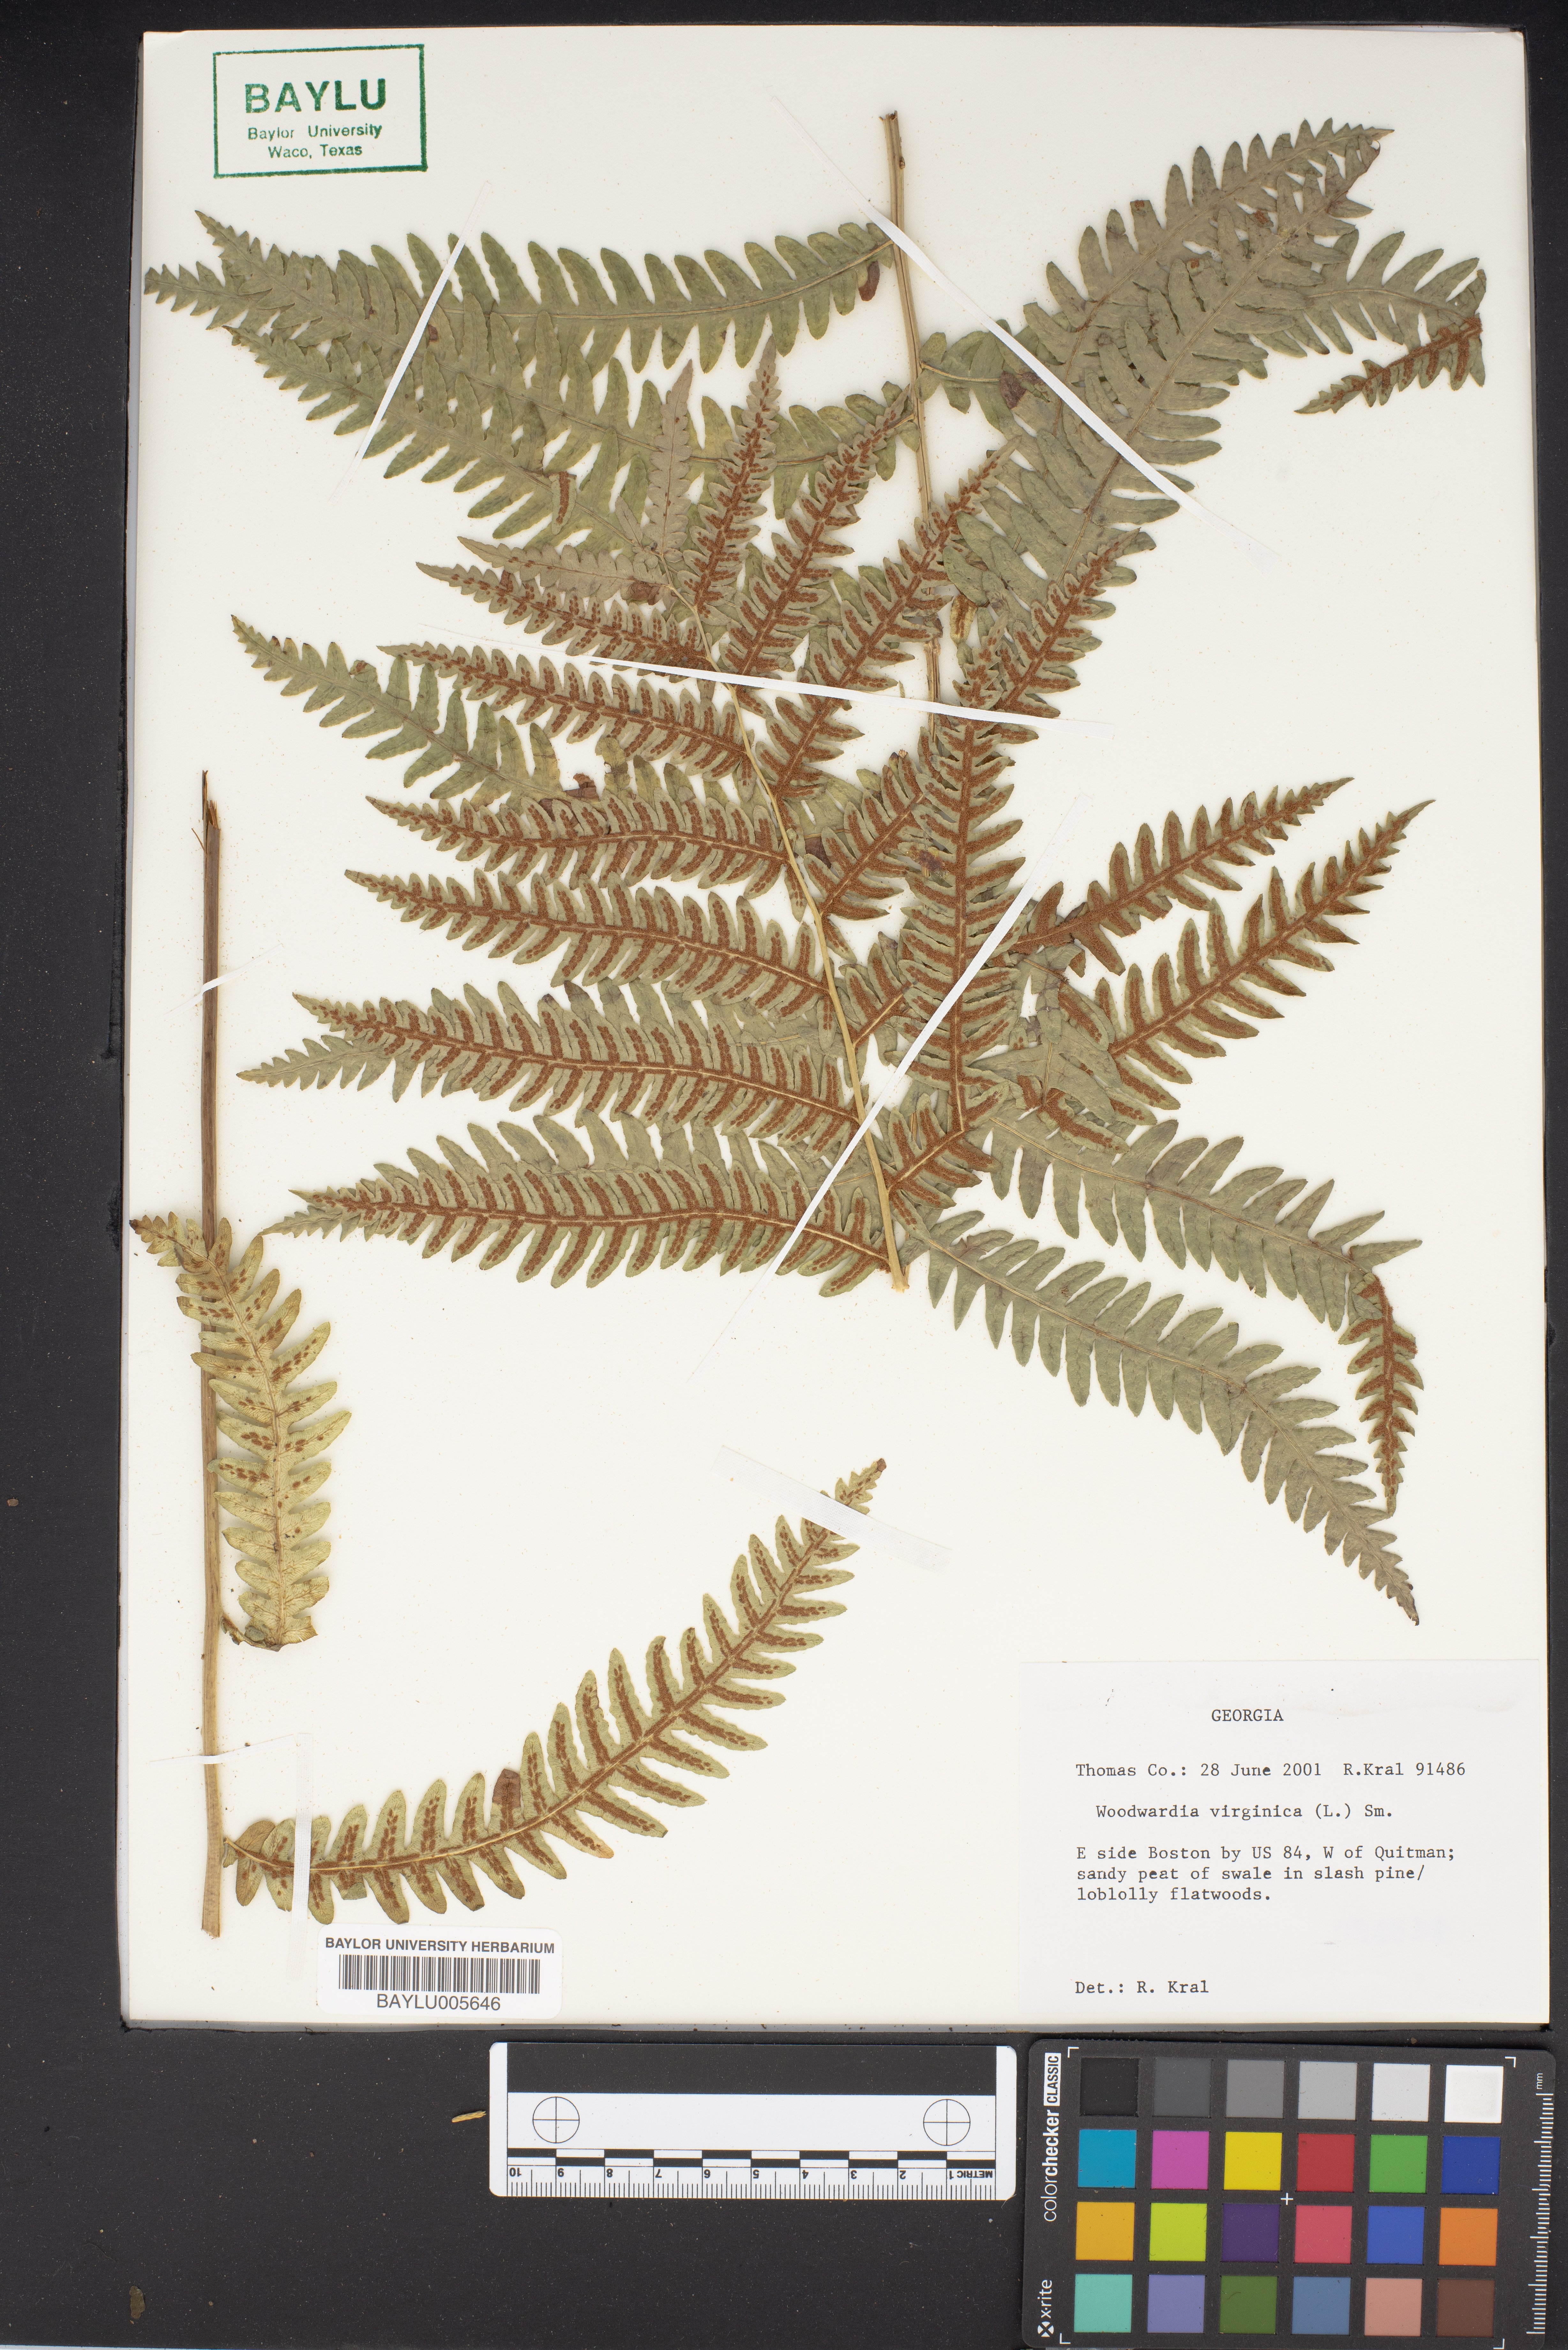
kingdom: Plantae
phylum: Tracheophyta
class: Polypodiopsida
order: Polypodiales
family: Blechnaceae
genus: Anchistea
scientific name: Anchistea virginica
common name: Virginia chain fern
